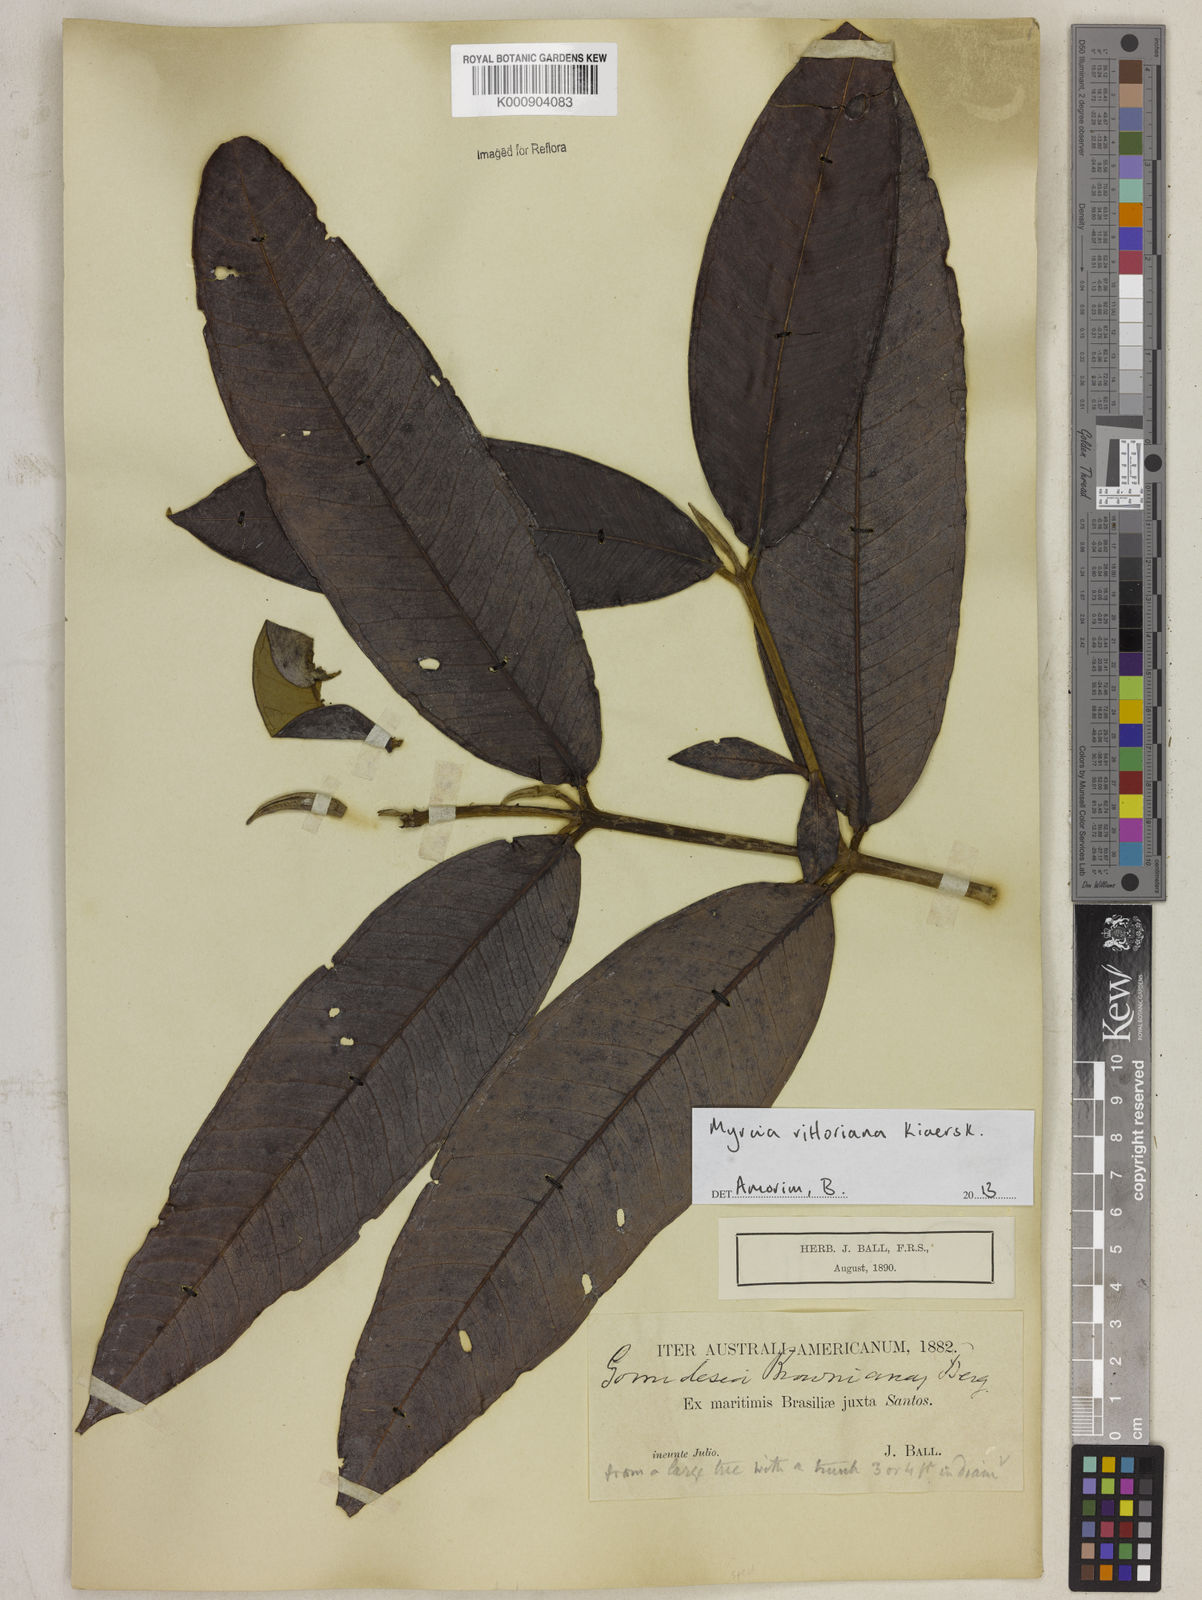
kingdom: Plantae
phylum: Tracheophyta
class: Magnoliopsida
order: Myrtales
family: Myrtaceae
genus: Myrcia
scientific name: Myrcia spectabilis
